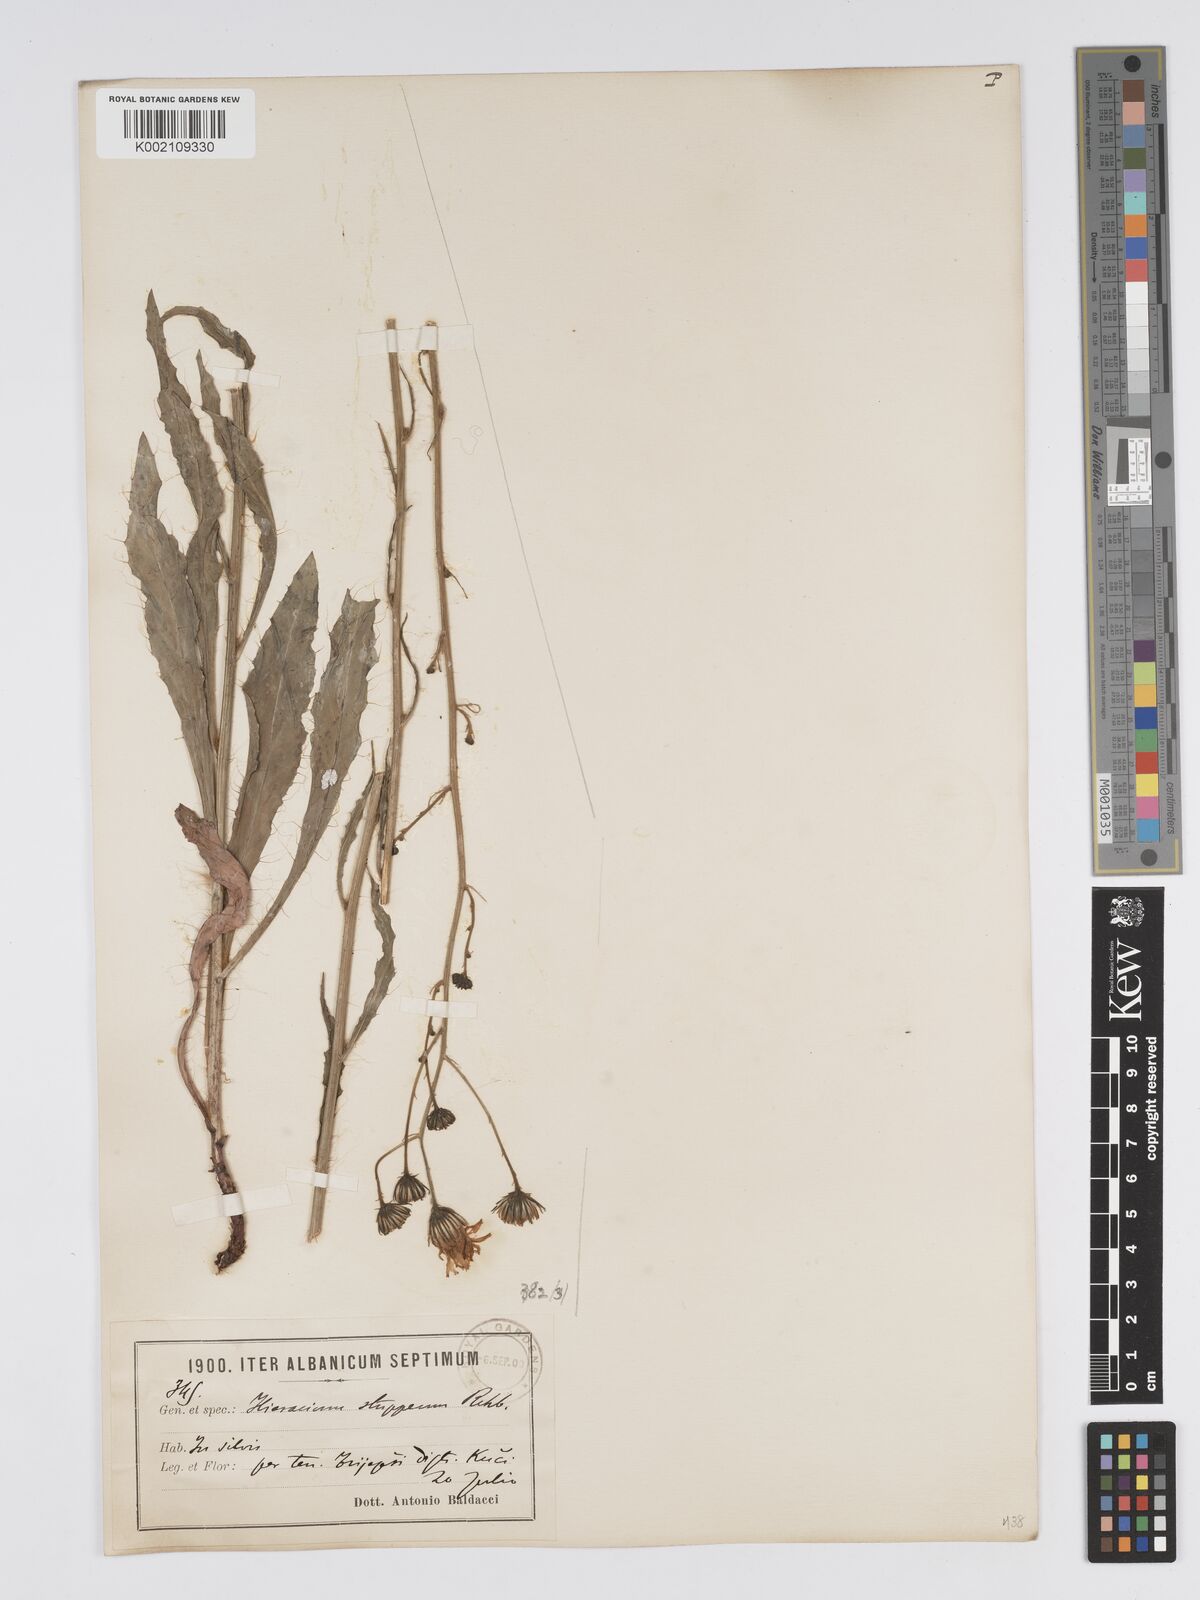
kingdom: Plantae
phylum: Tracheophyta
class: Magnoliopsida
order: Asterales
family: Asteraceae
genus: Hieracium
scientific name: Hieracium heterogynum
